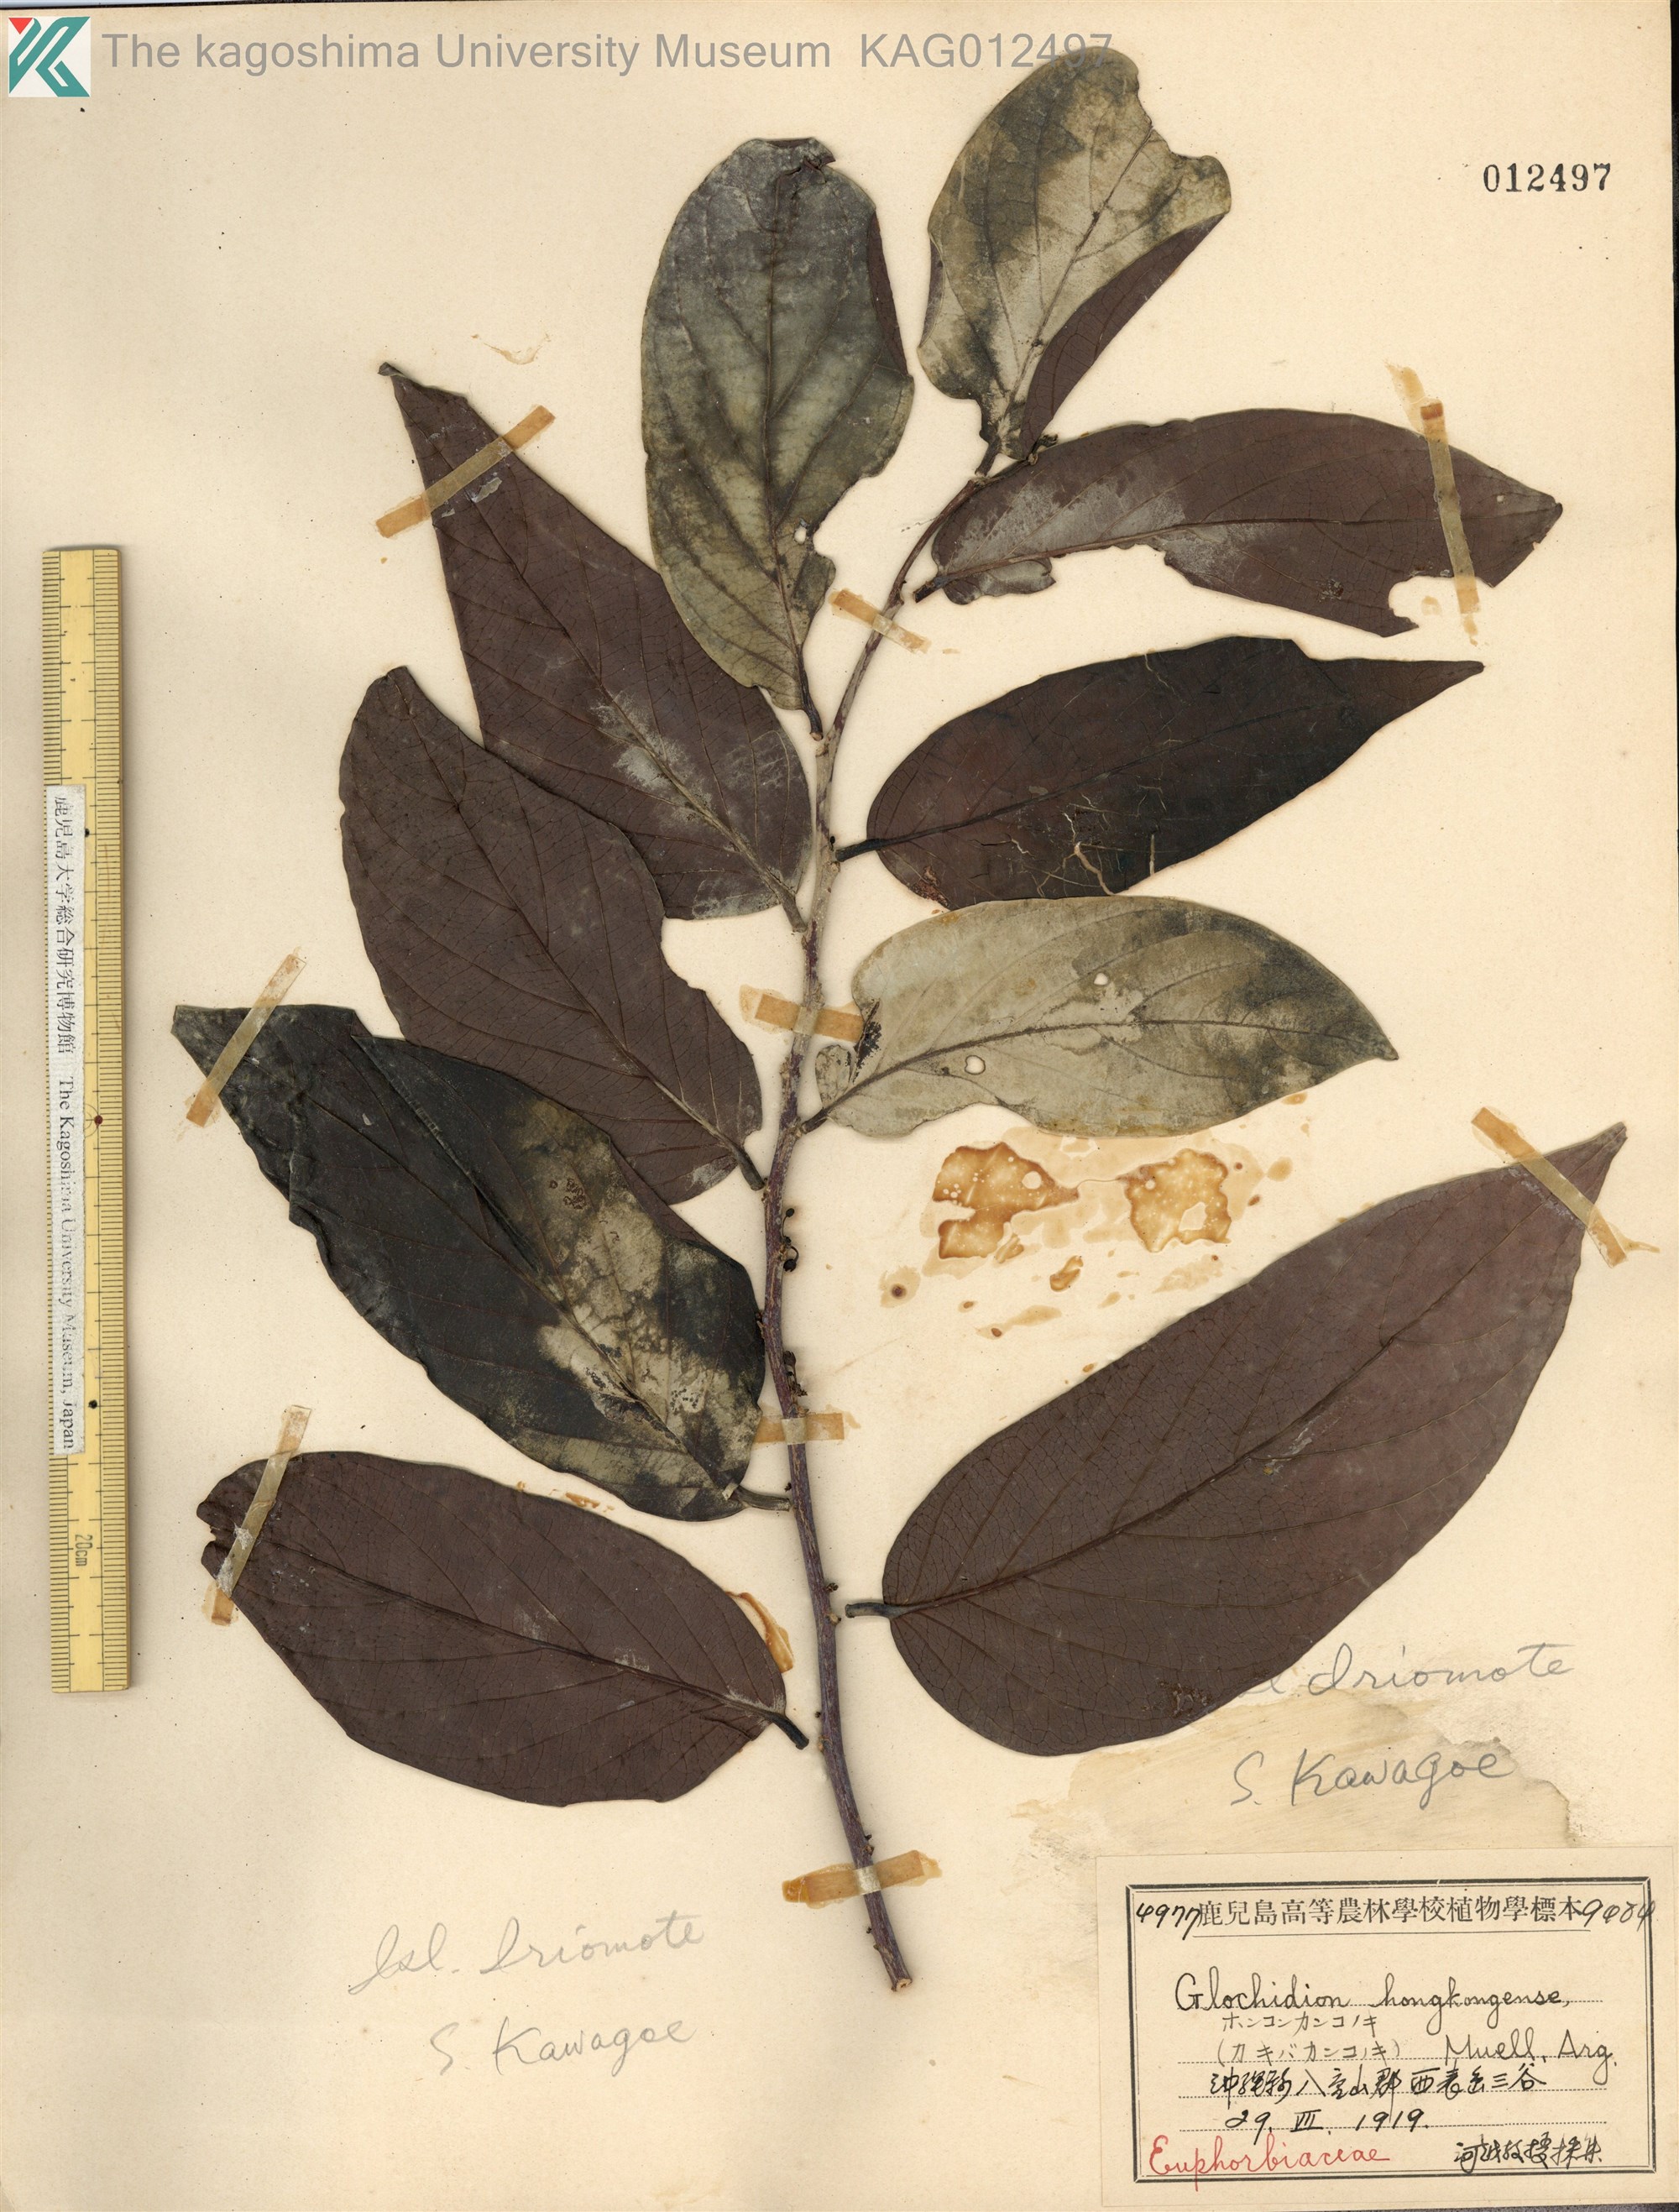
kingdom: Plantae
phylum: Tracheophyta
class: Magnoliopsida
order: Malpighiales
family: Phyllanthaceae
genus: Glochidion
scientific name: Glochidion zeylanicum
